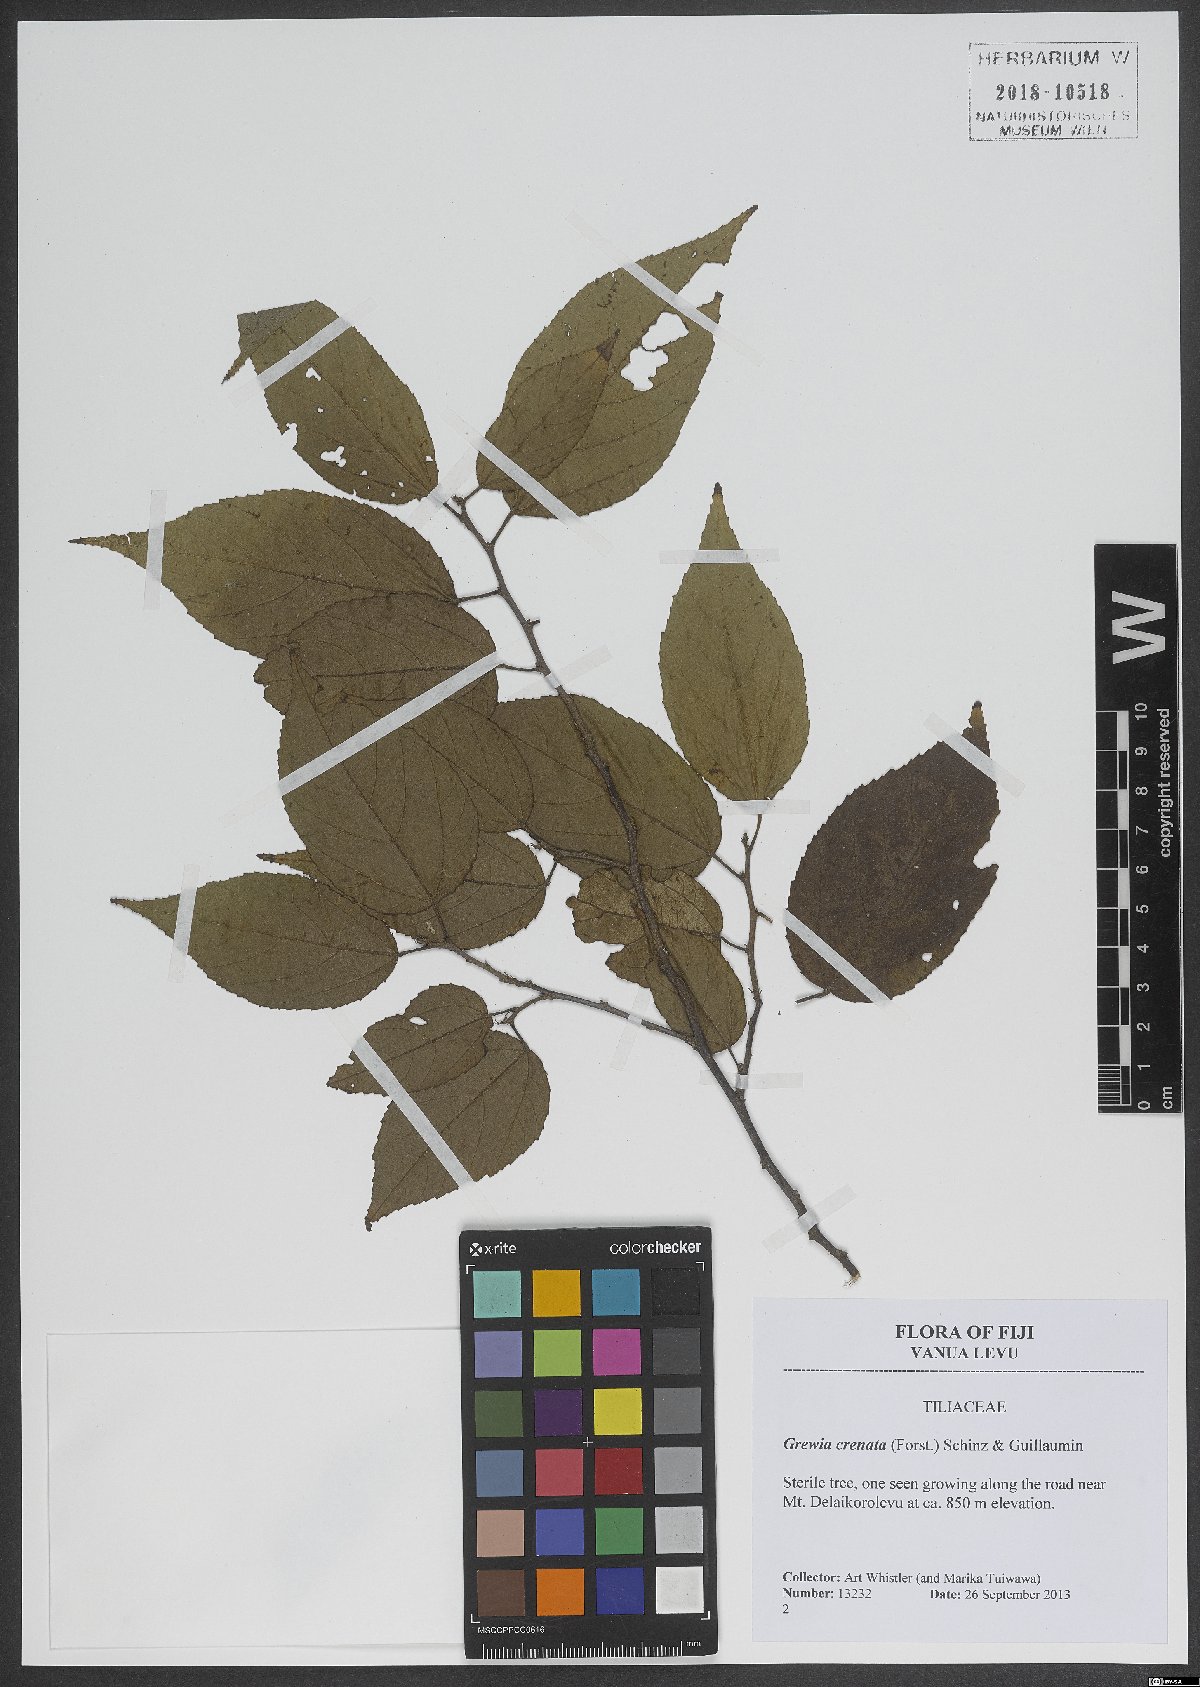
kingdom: Plantae
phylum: Tracheophyta
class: Magnoliopsida
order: Malvales
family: Malvaceae
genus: Grewia
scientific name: Grewia crenata
